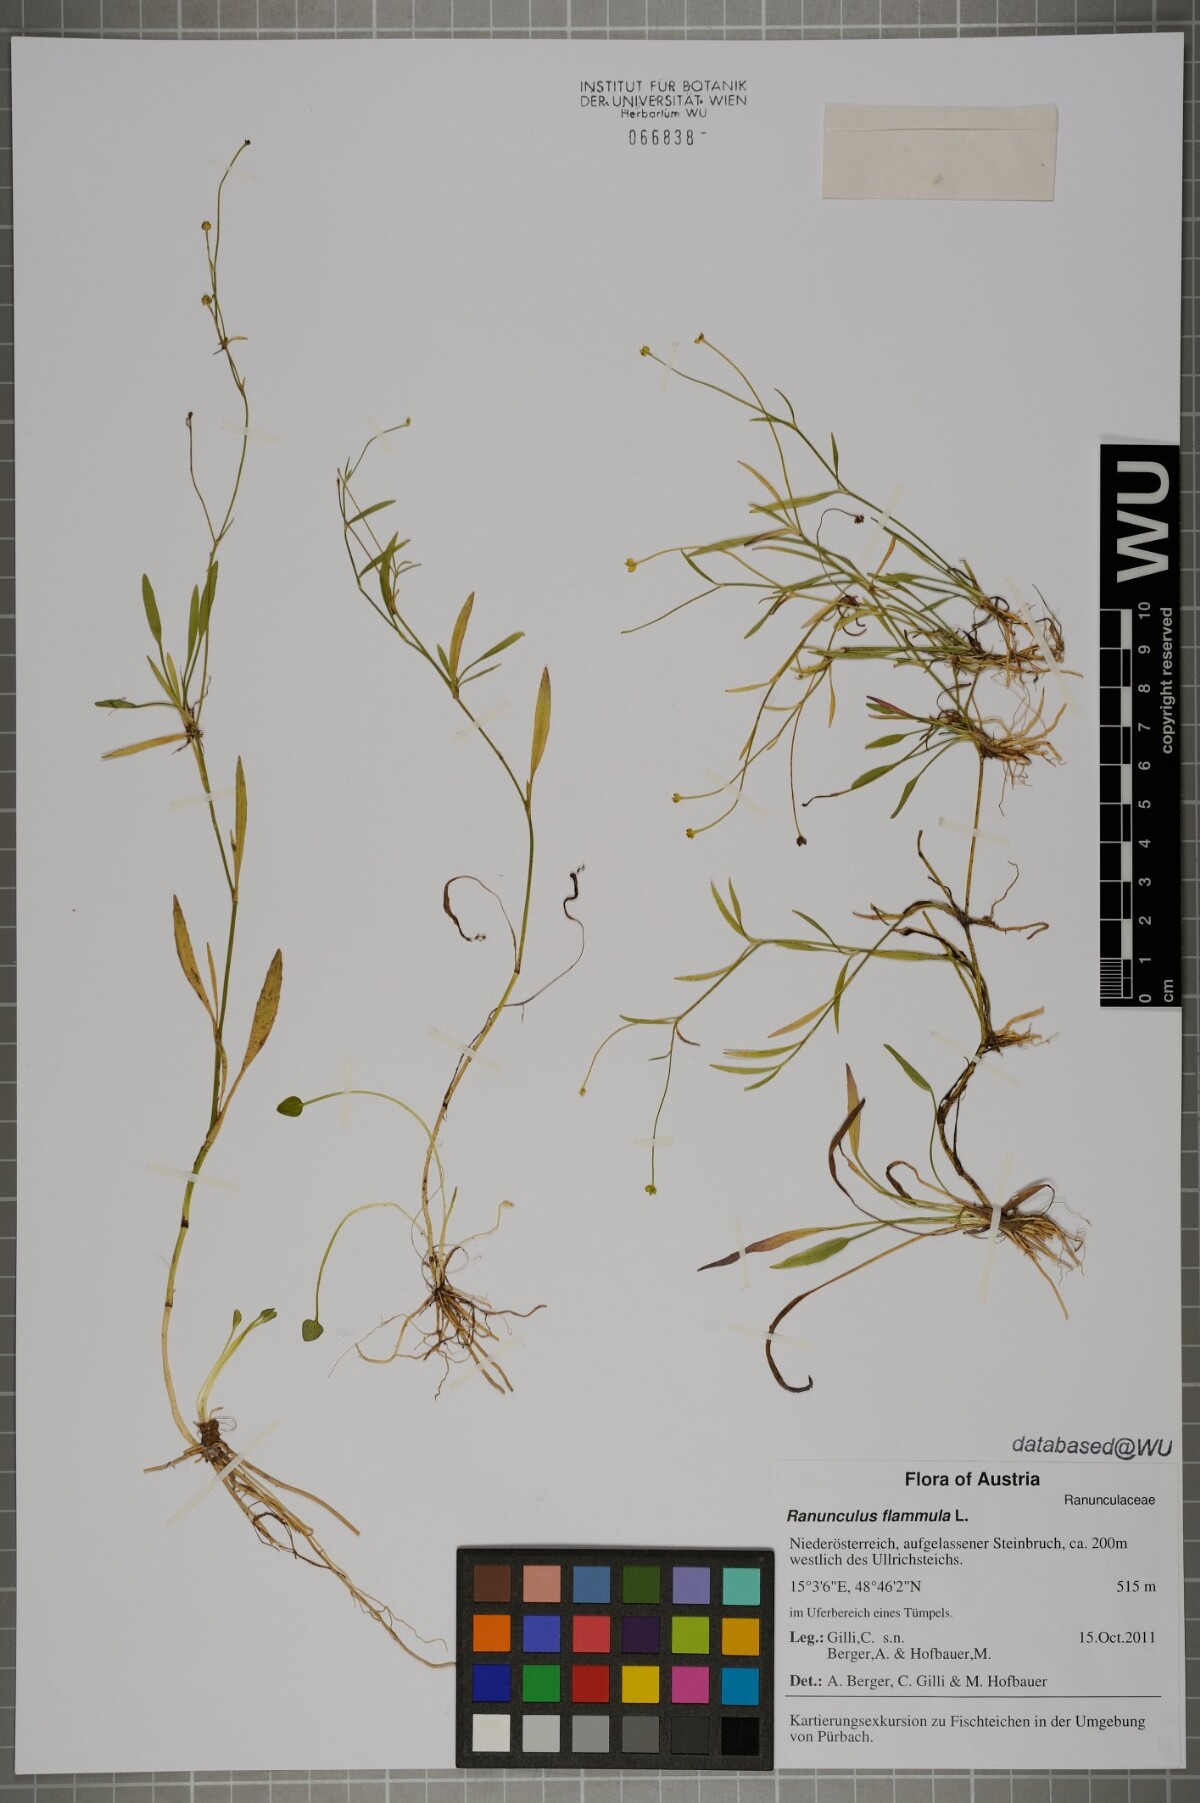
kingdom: Plantae
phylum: Tracheophyta
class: Magnoliopsida
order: Ranunculales
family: Ranunculaceae
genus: Ranunculus
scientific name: Ranunculus flammula
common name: Lesser spearwort
